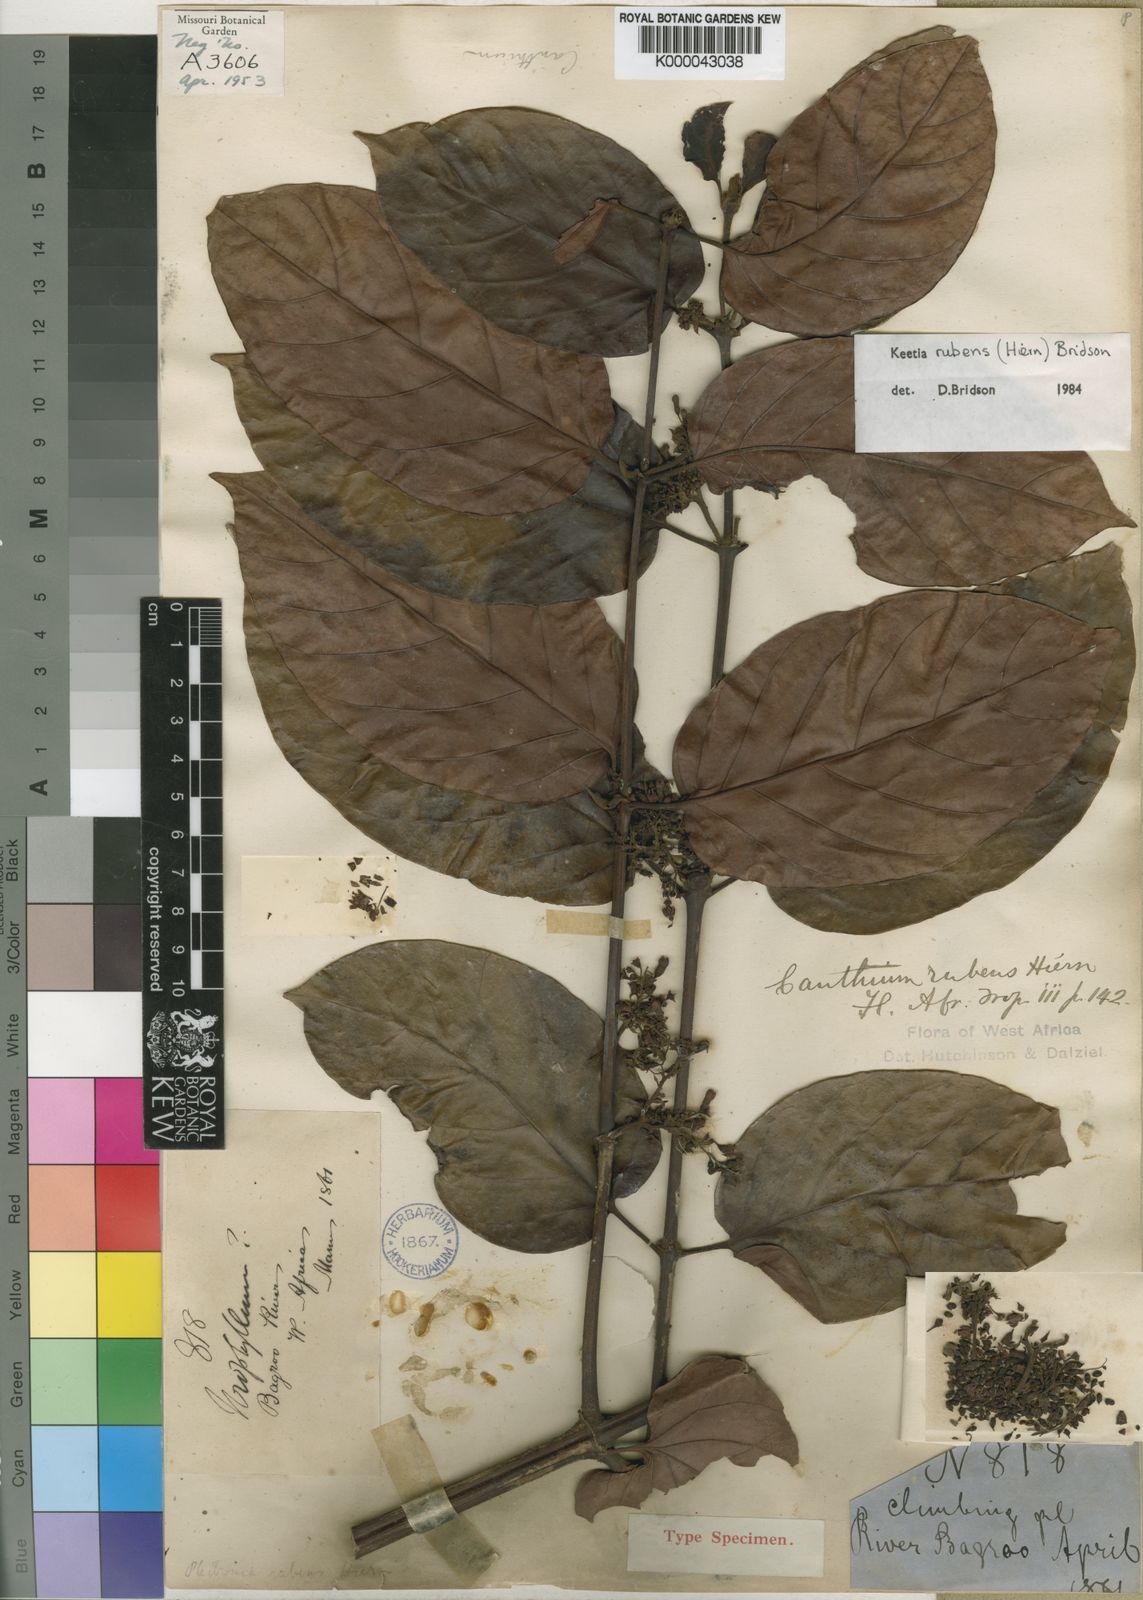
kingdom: Plantae
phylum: Tracheophyta
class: Magnoliopsida
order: Gentianales
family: Rubiaceae
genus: Keetia
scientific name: Keetia rubens
